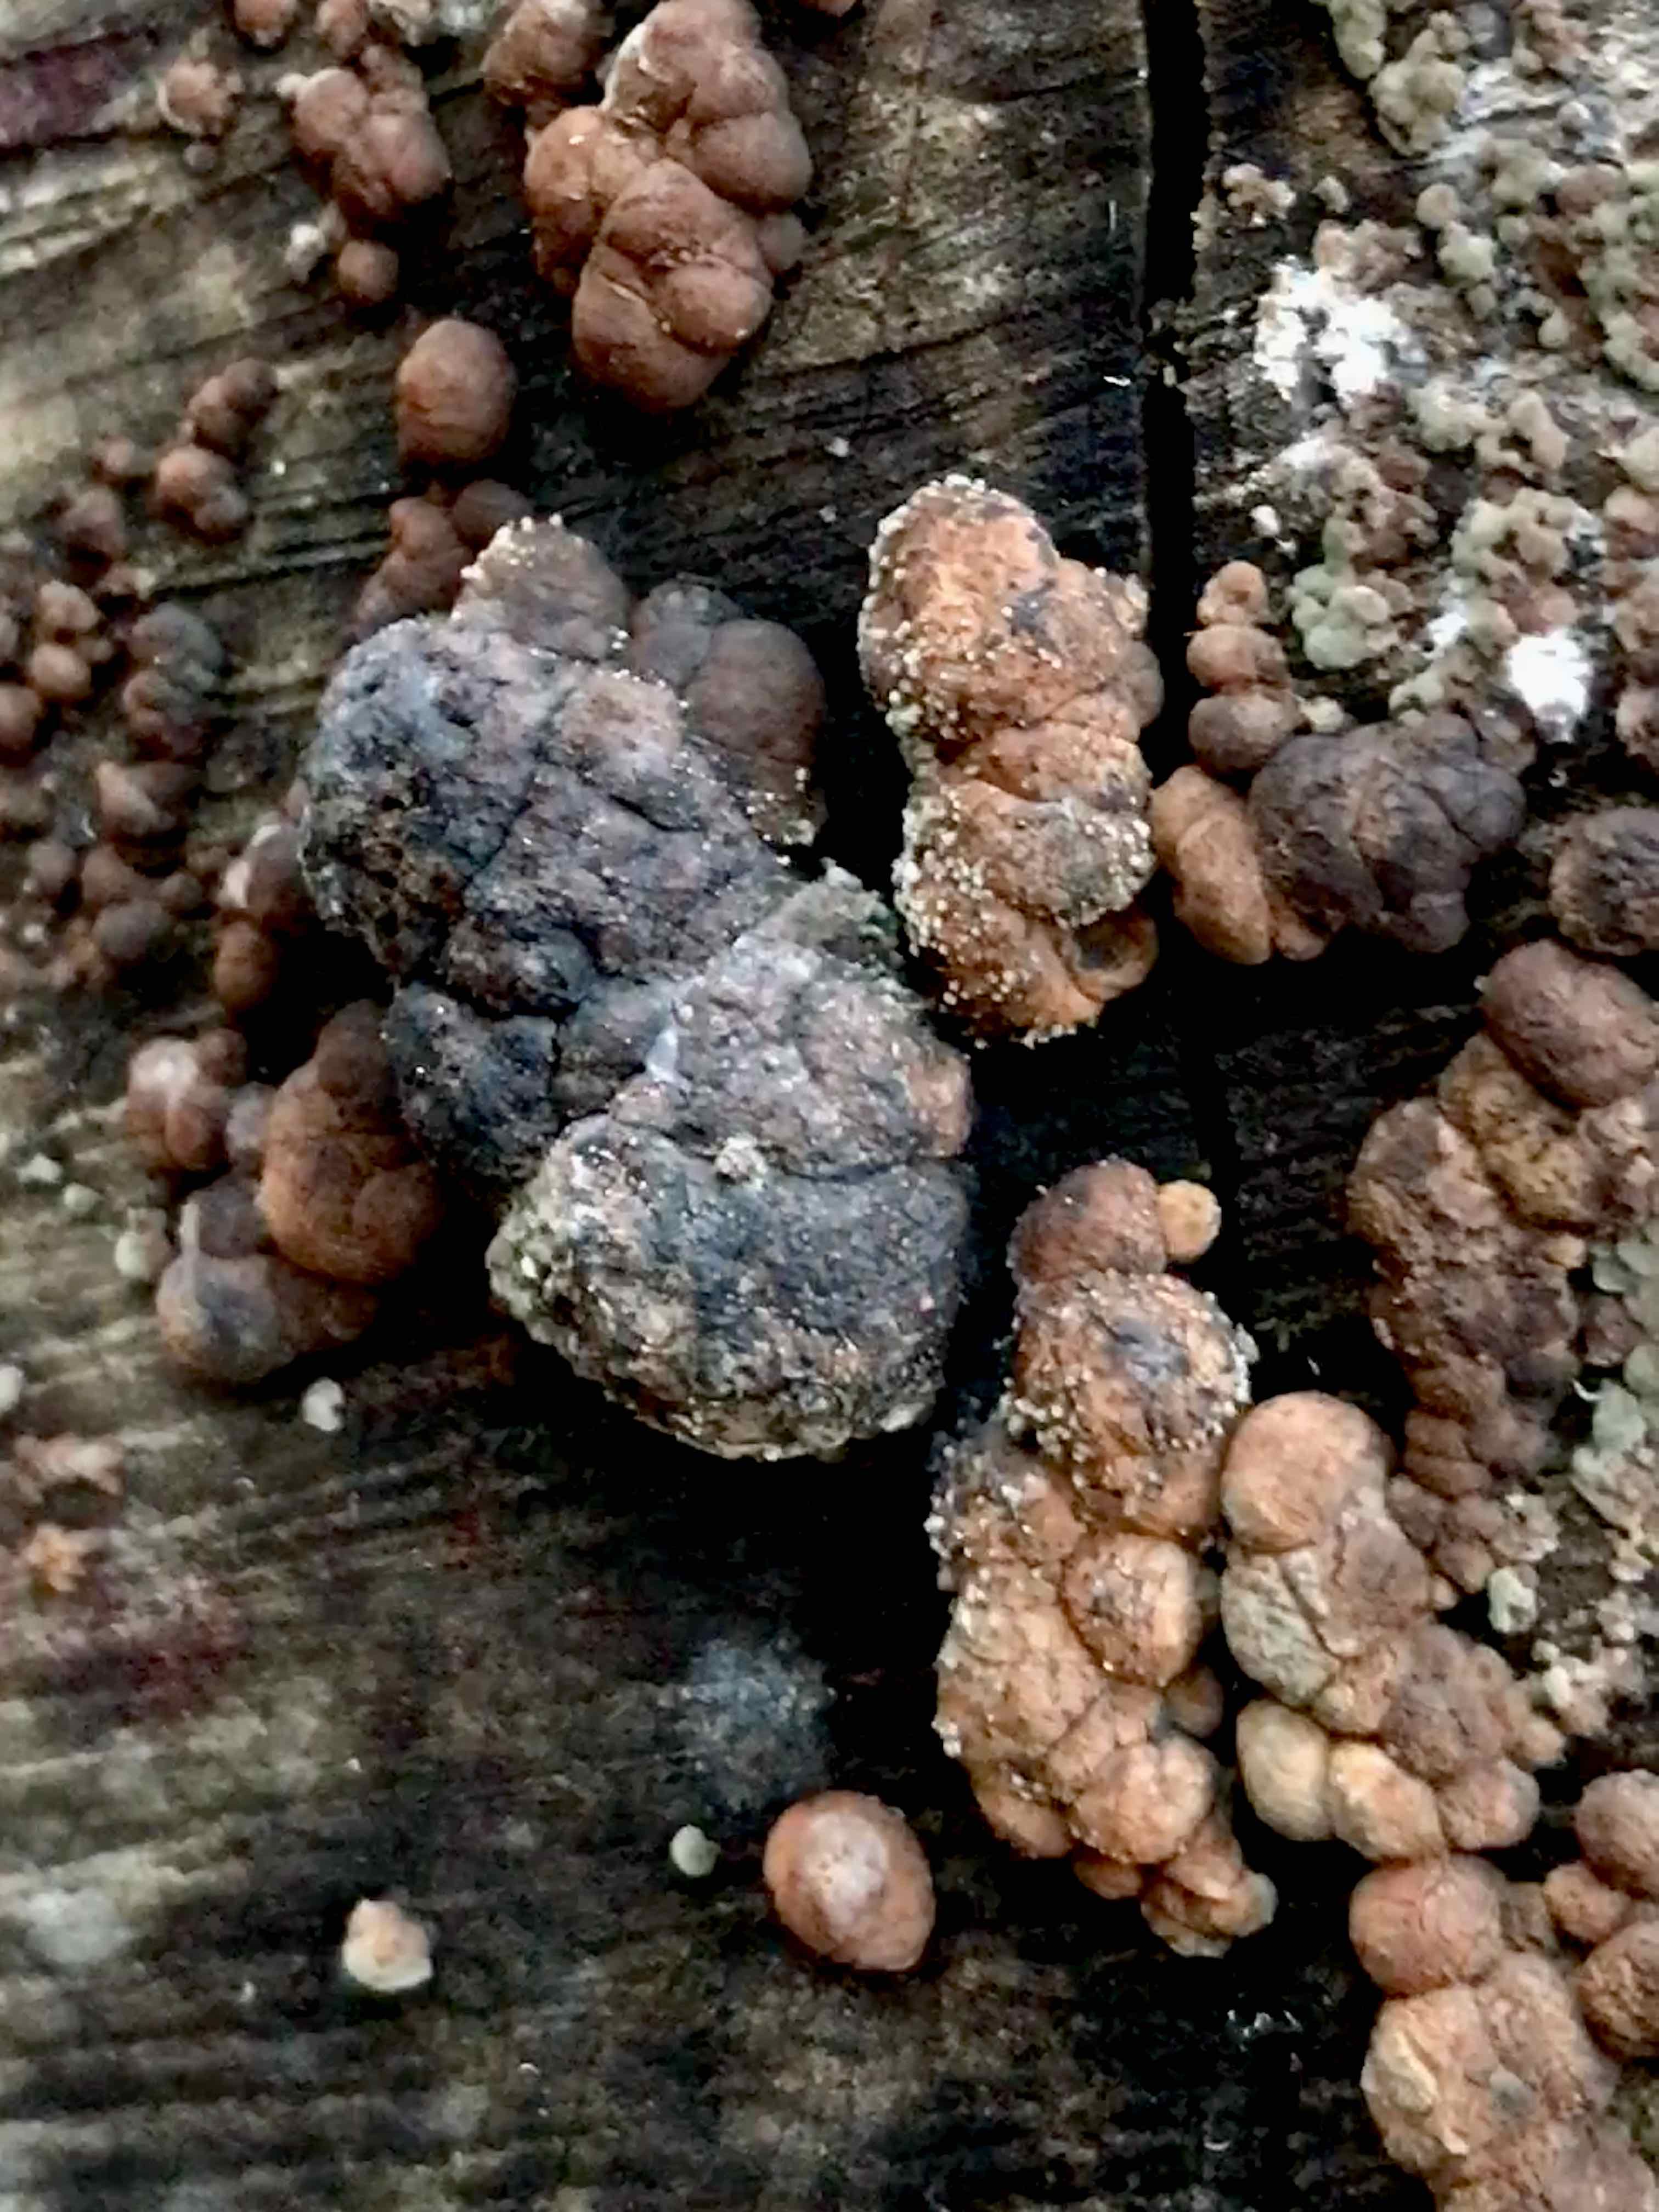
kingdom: Fungi
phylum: Ascomycota
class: Sordariomycetes
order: Xylariales
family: Hypoxylaceae
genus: Hypoxylon
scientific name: Hypoxylon fragiforme
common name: kuljordbær
